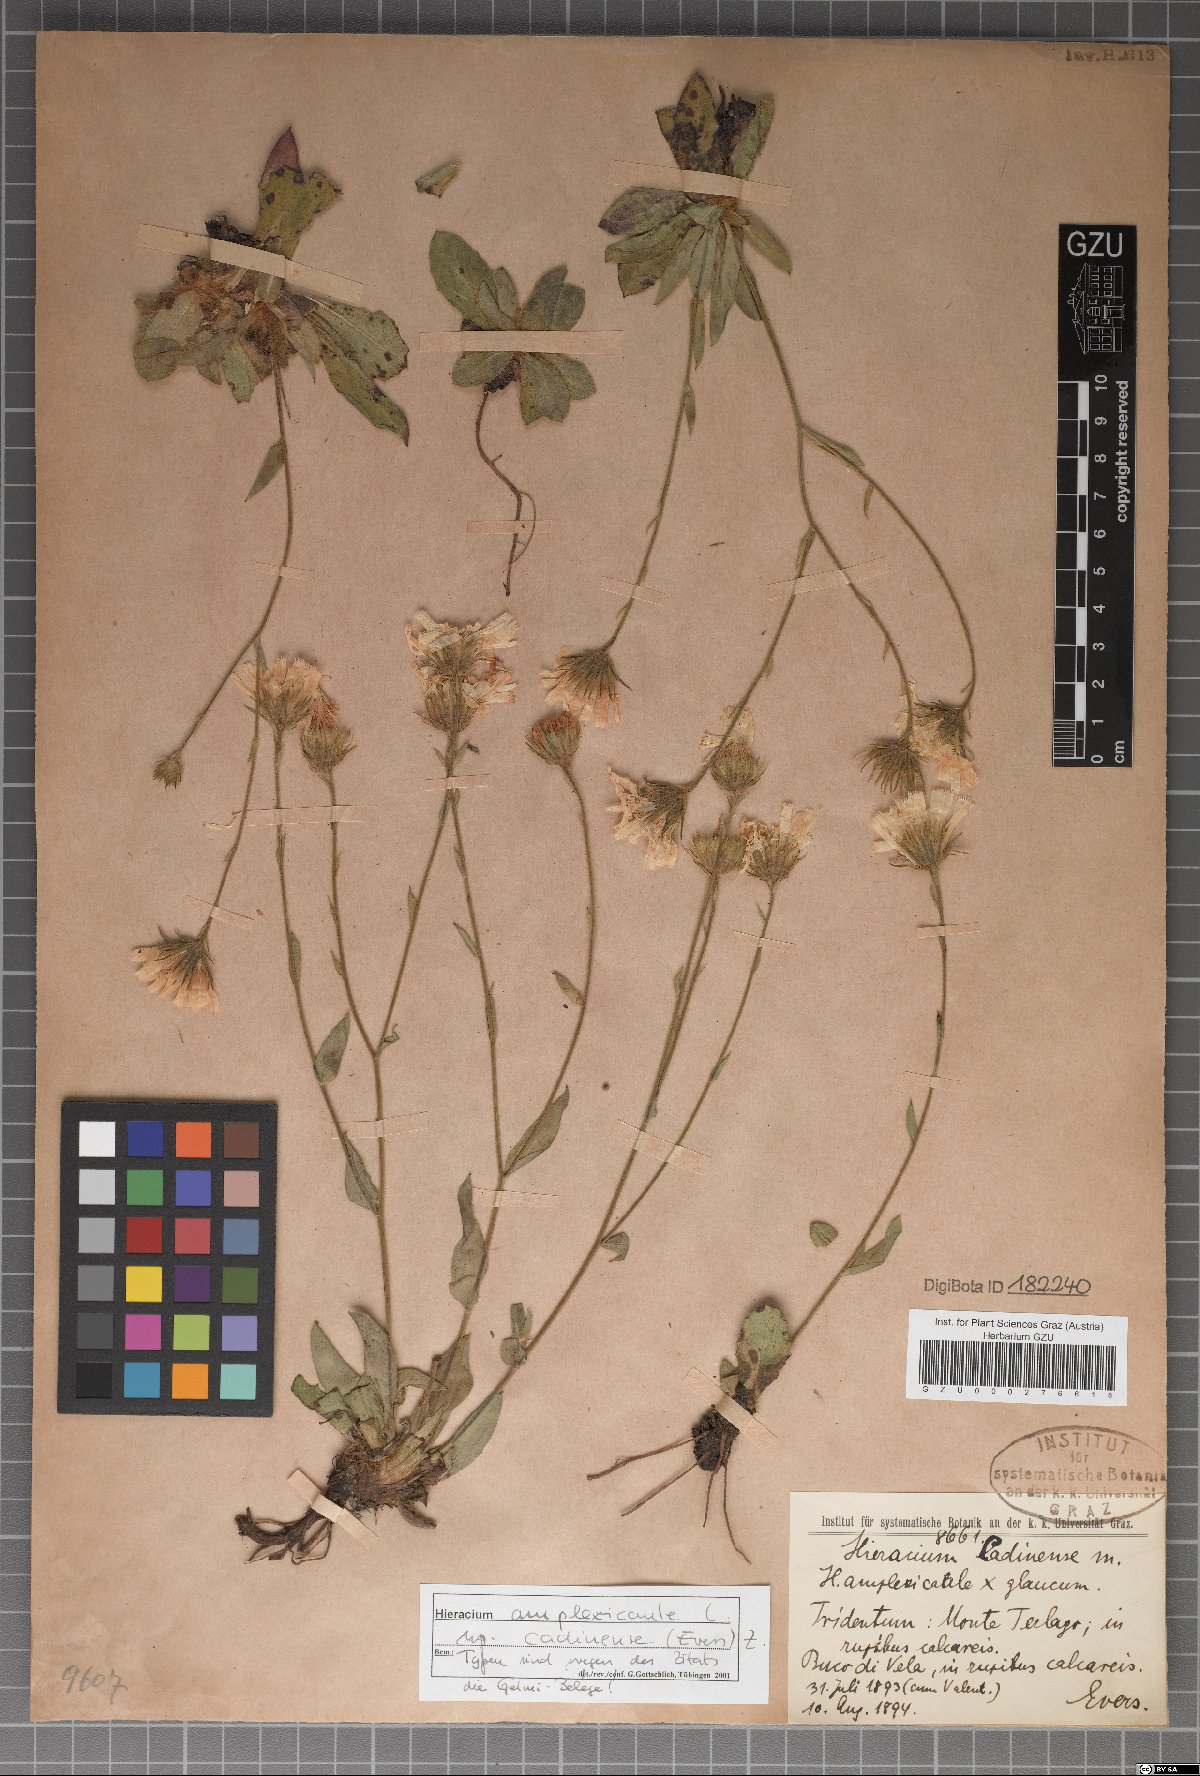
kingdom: Plantae
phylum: Tracheophyta
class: Magnoliopsida
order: Asterales
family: Asteraceae
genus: Hieracium
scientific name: Hieracium amplexicaule
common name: Sticky hawkweed
